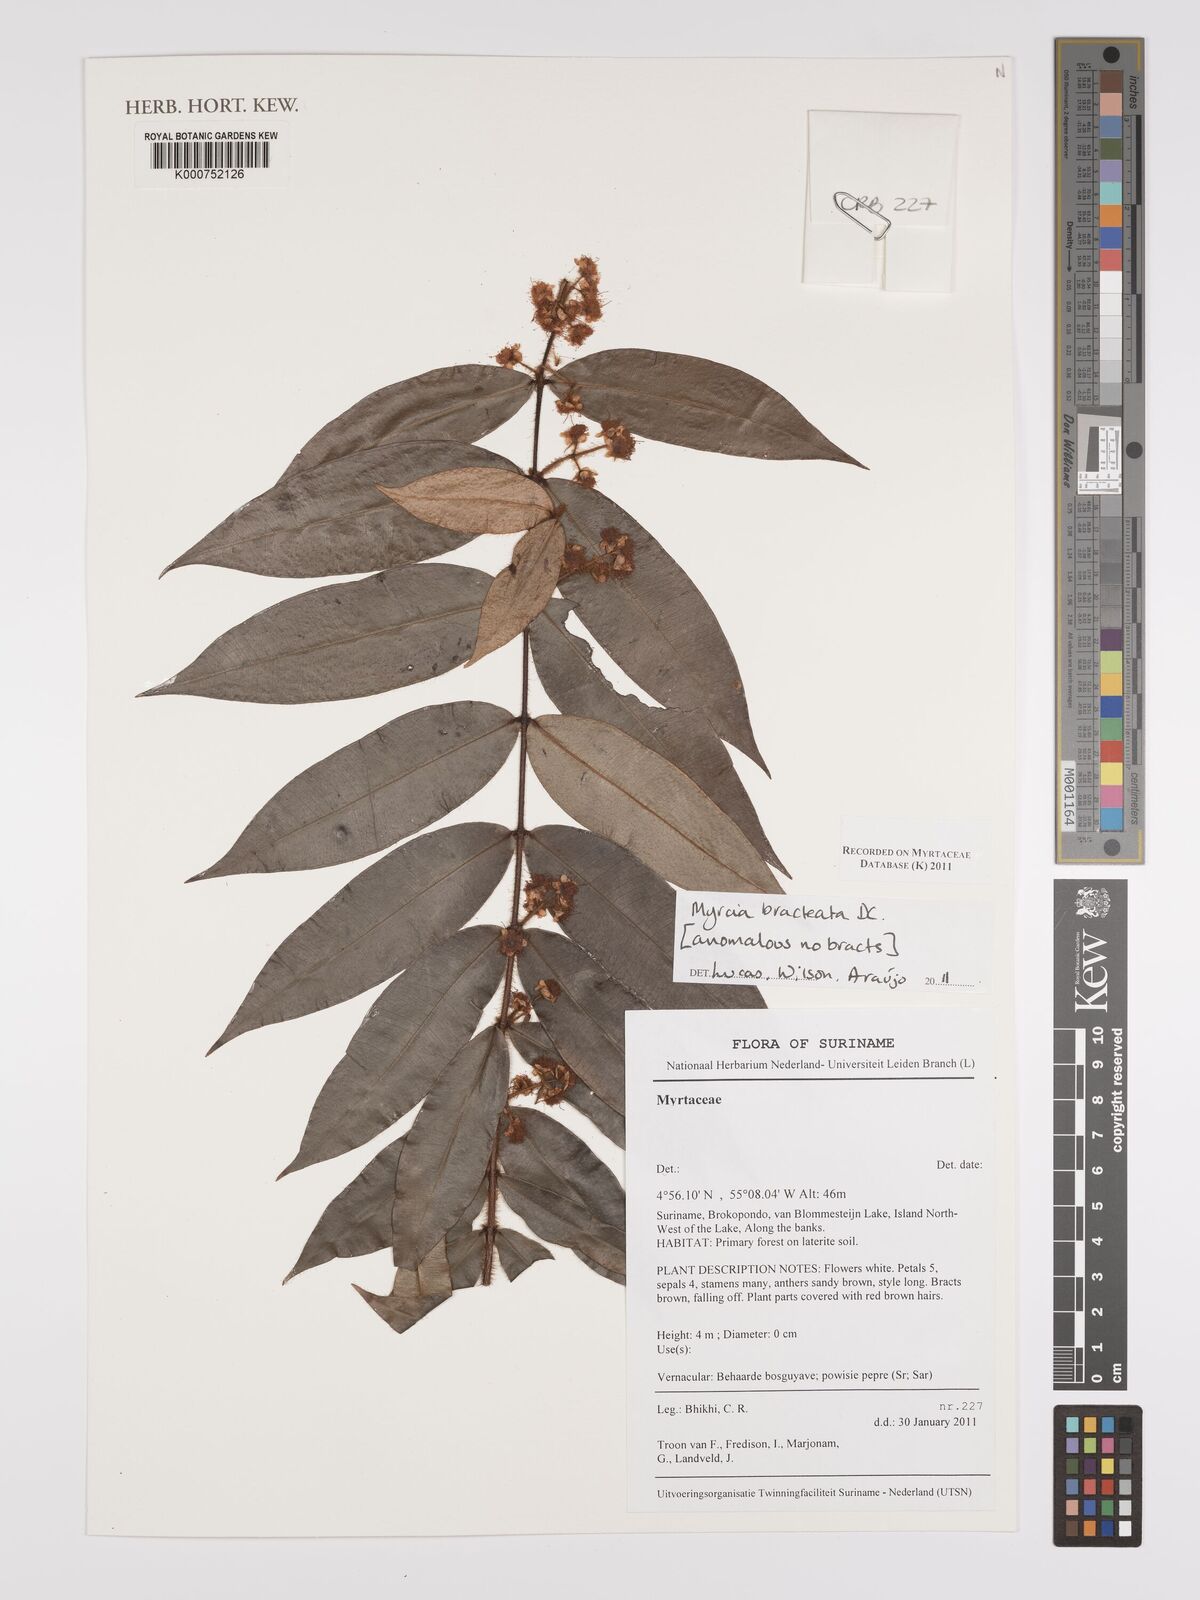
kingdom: Plantae
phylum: Tracheophyta
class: Magnoliopsida
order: Myrtales
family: Myrtaceae
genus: Myrcia
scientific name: Myrcia bracteata
